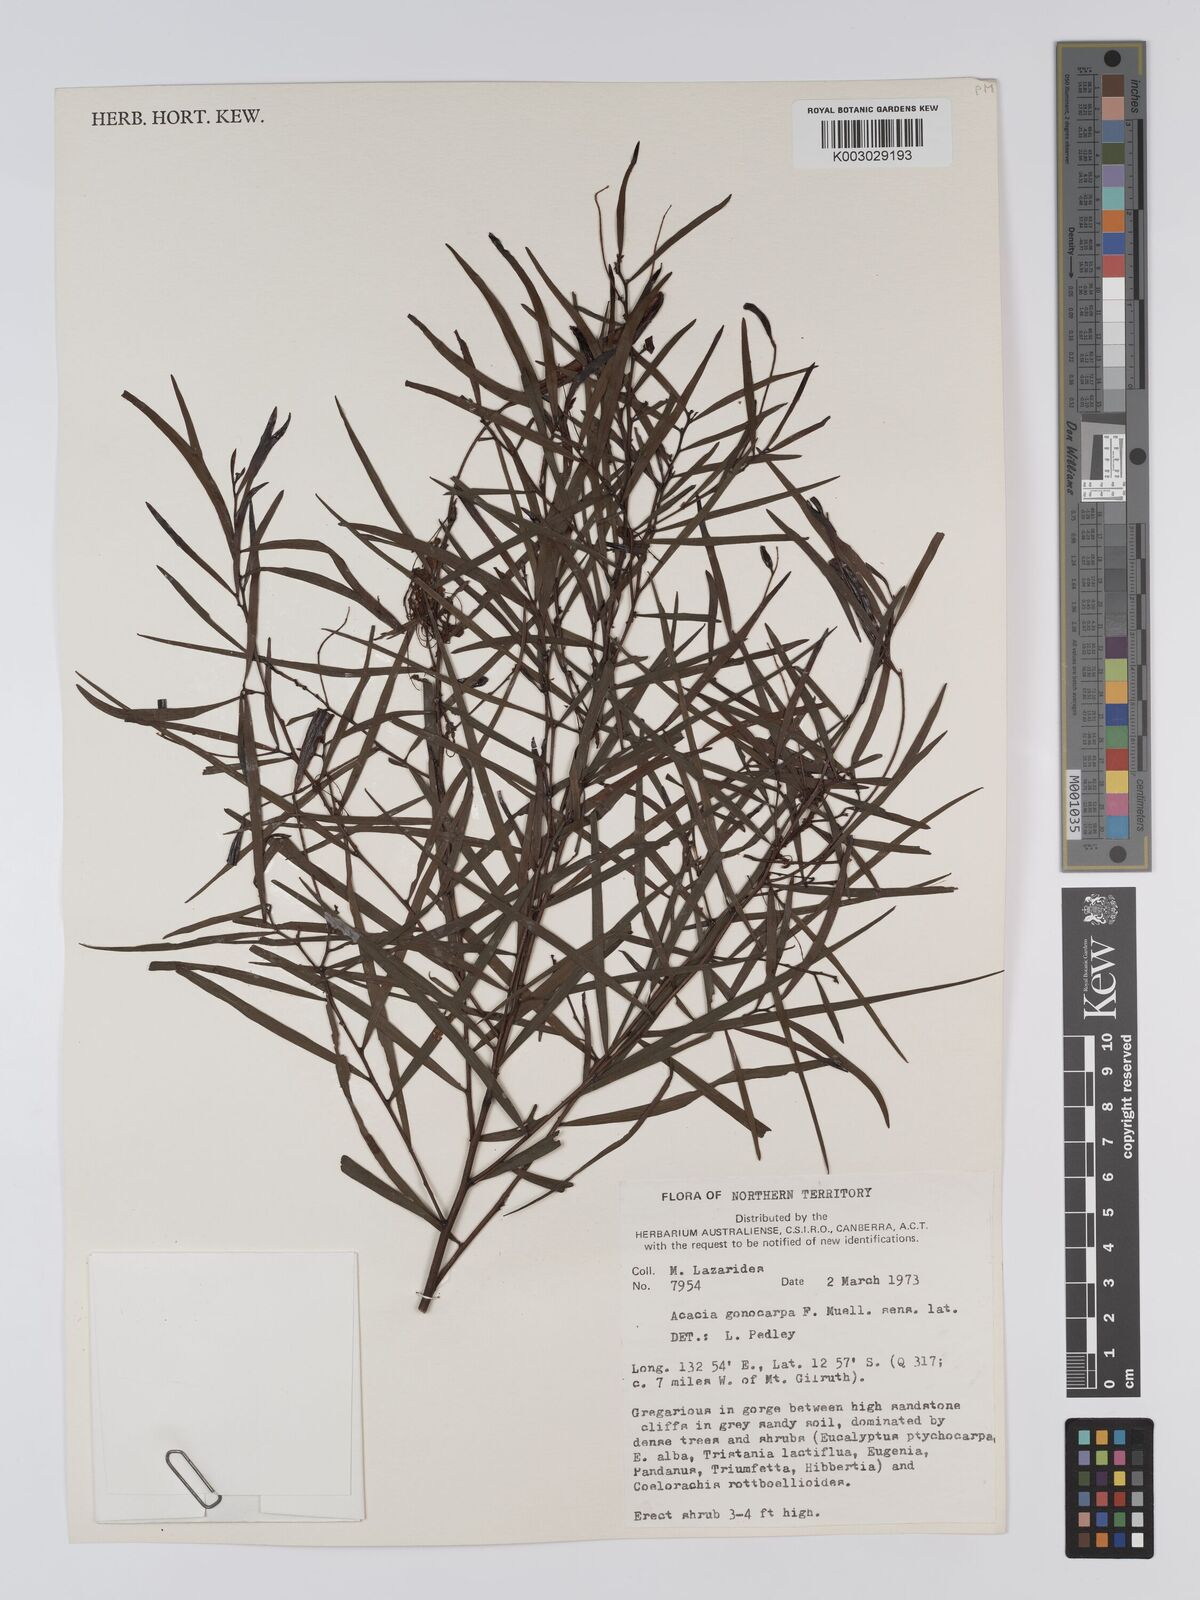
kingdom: Plantae
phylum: Tracheophyta
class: Magnoliopsida
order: Fabales
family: Fabaceae
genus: Acacia
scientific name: Acacia gonocarpa
